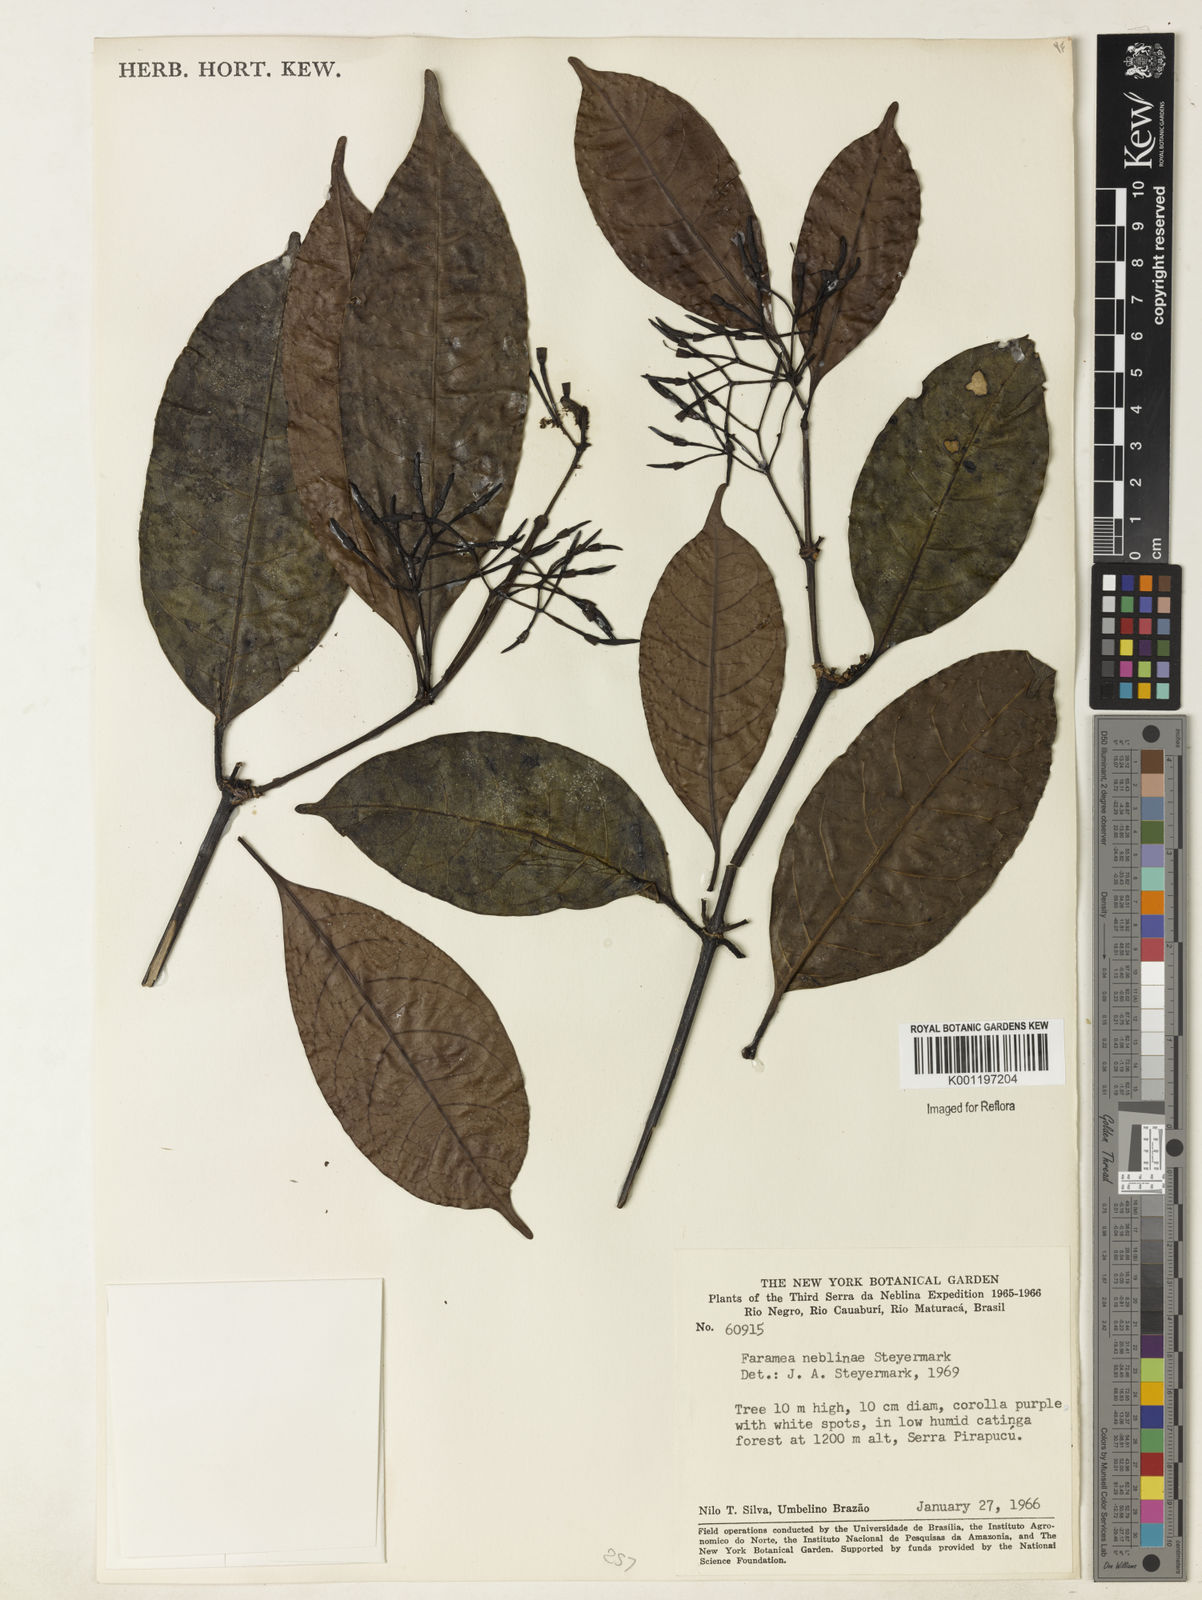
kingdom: Plantae
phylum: Tracheophyta
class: Magnoliopsida
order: Gentianales
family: Rubiaceae
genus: Faramea
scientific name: Faramea neblinae
